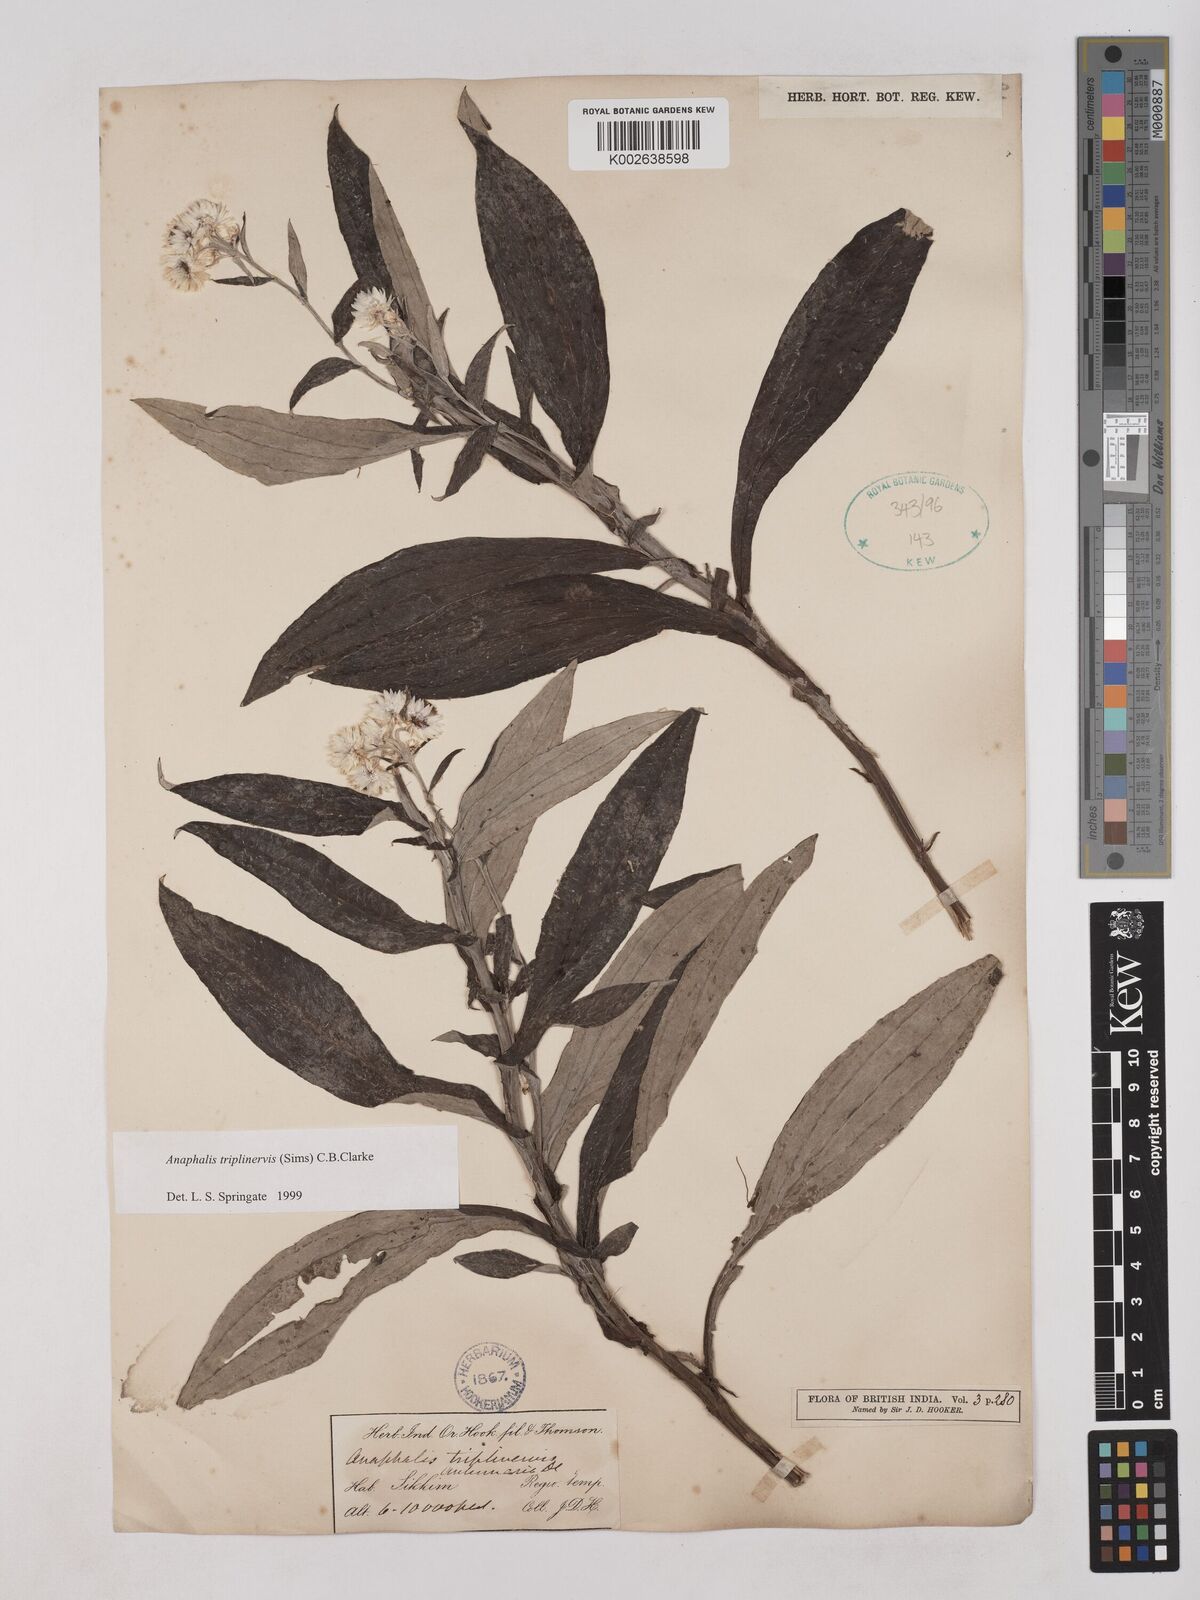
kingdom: Plantae
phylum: Tracheophyta
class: Magnoliopsida
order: Asterales
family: Asteraceae
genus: Anaphalis
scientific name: Anaphalis triplinervis
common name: Pearly everlasting
